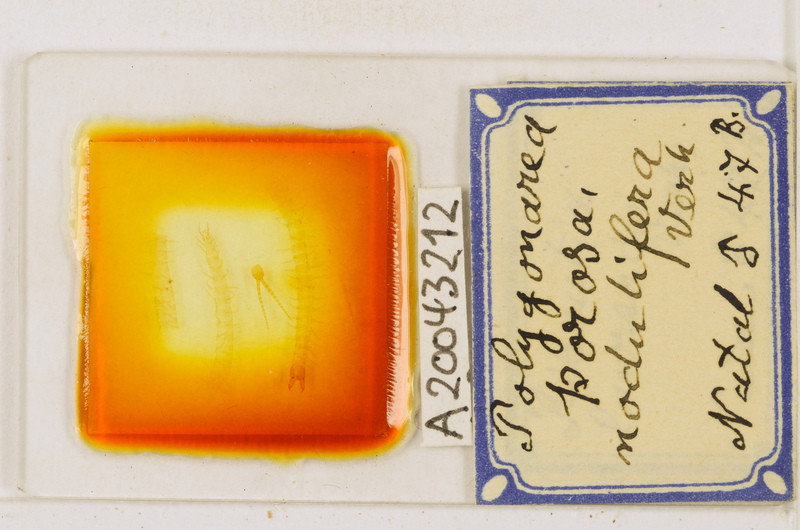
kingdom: Animalia
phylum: Arthropoda
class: Chilopoda
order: Geophilomorpha
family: Geophilidae
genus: Polygonarea
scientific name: Polygonarea africana
